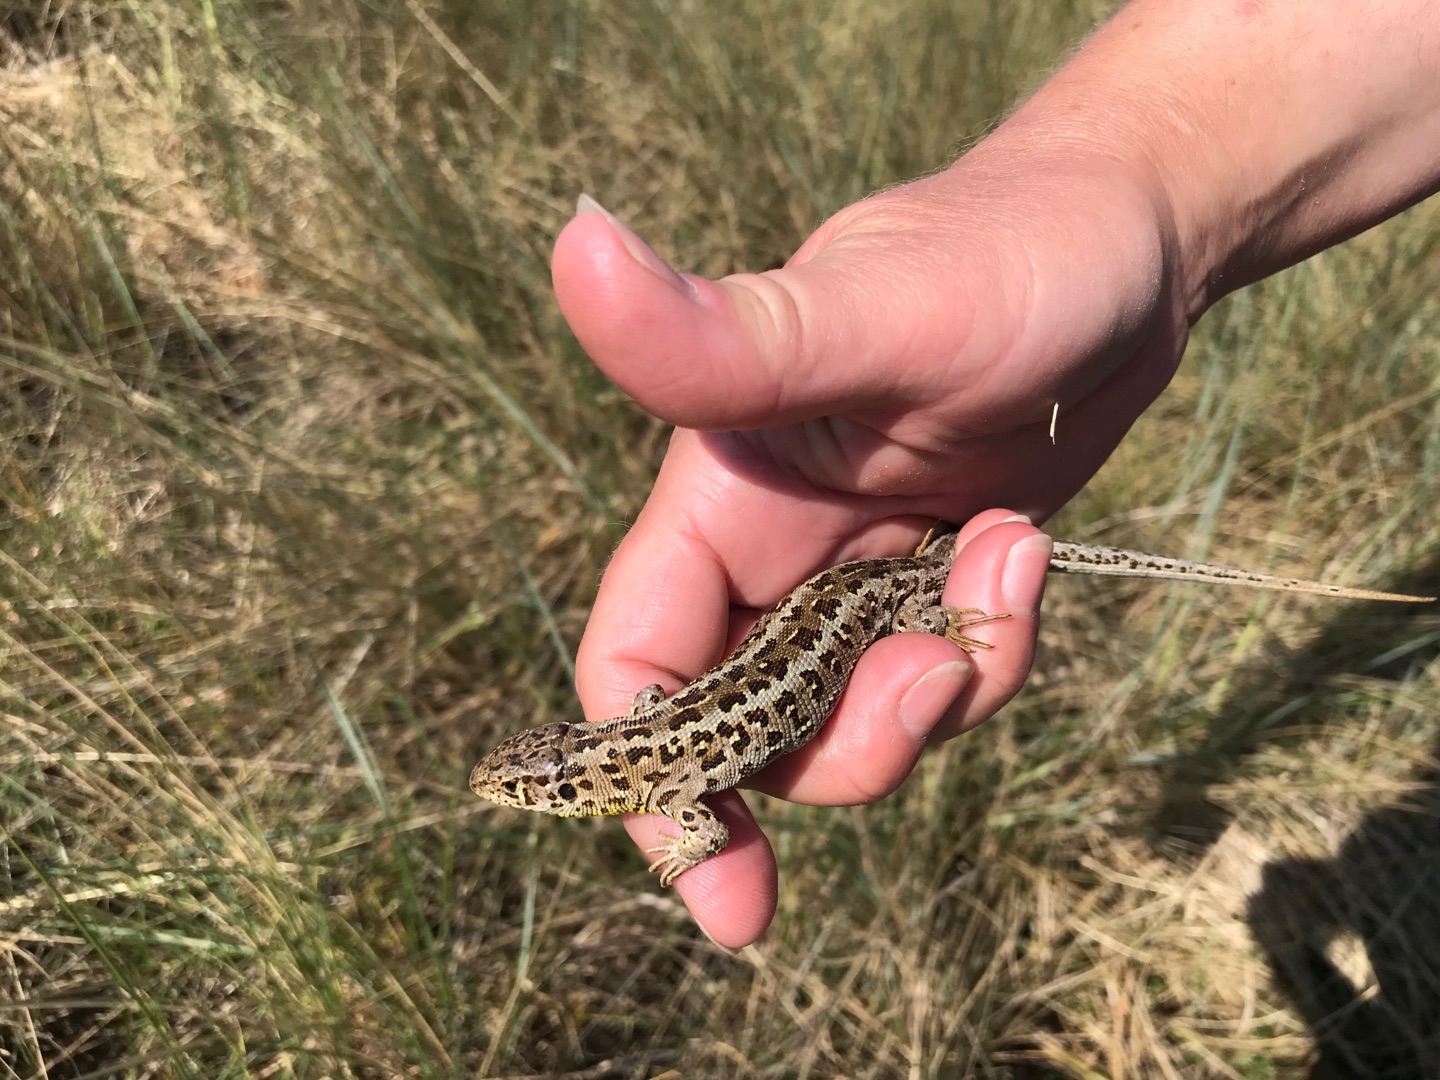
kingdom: Animalia
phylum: Chordata
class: Squamata
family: Lacertidae
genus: Lacerta
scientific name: Lacerta agilis
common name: Markfirben
